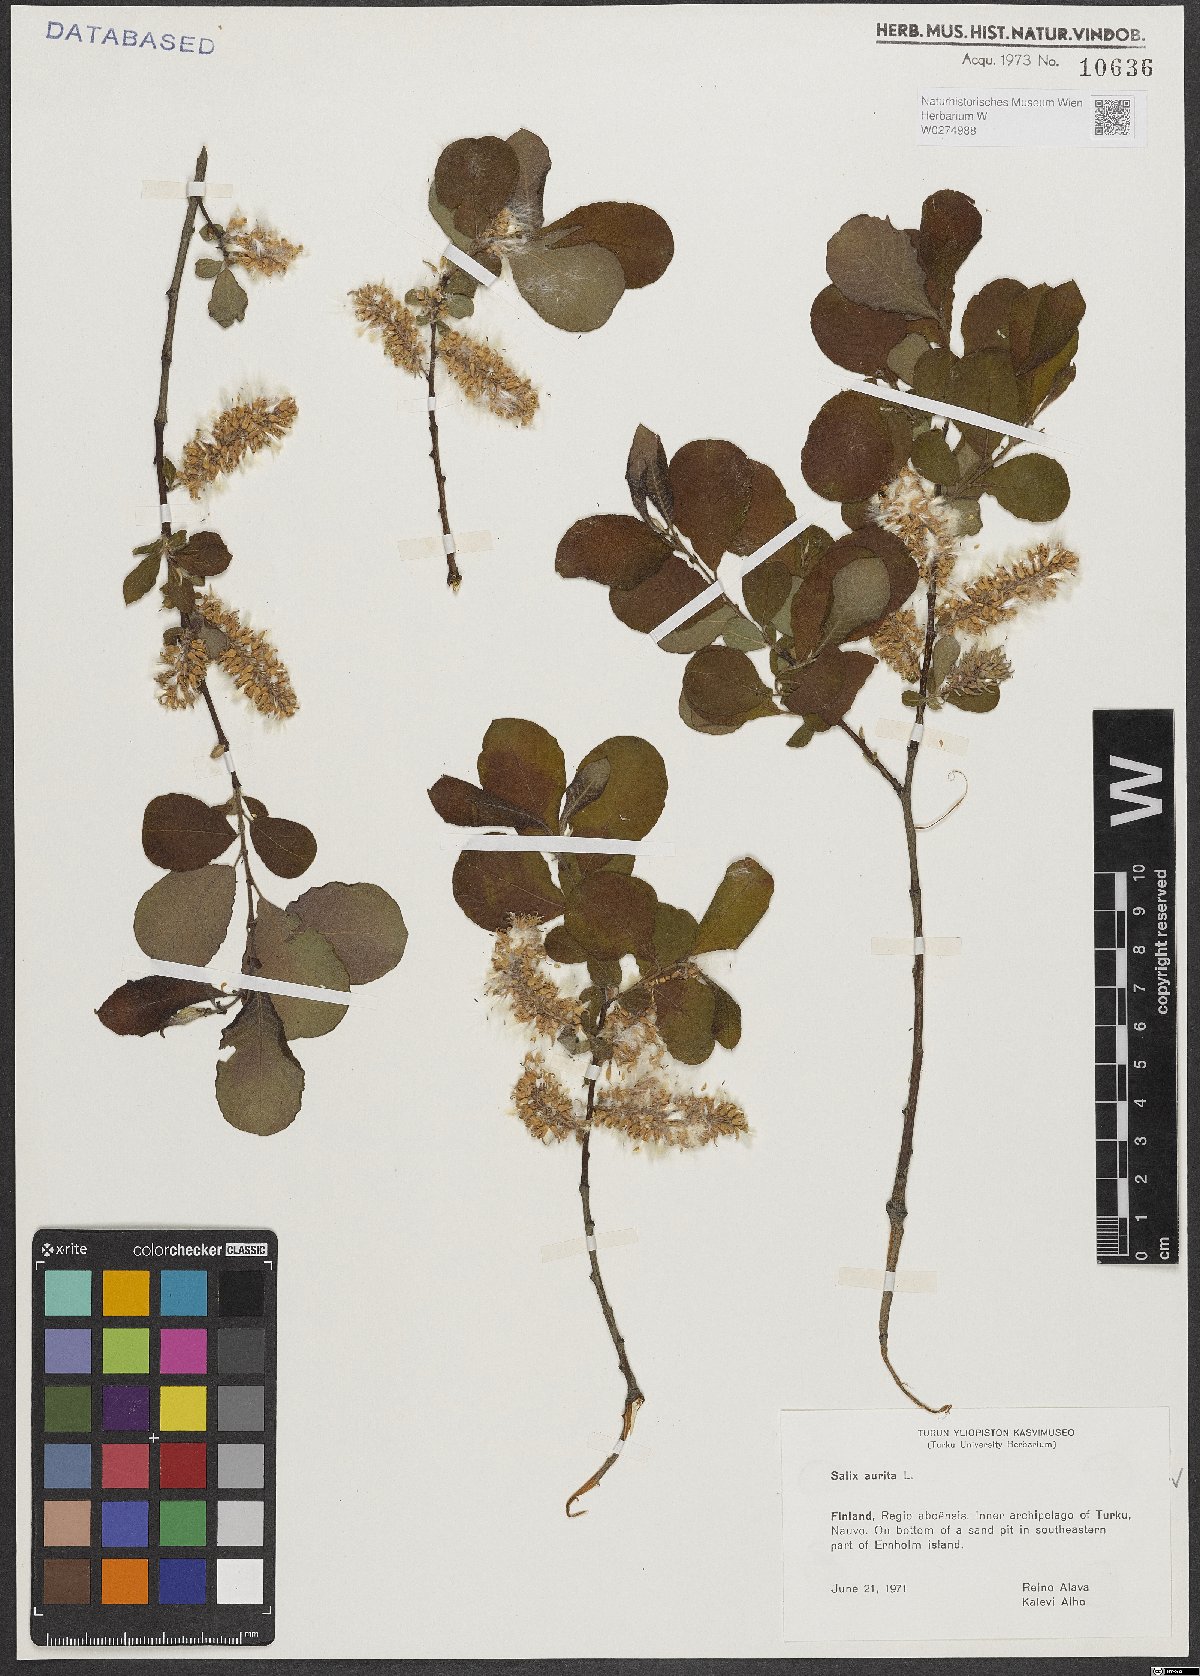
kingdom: Plantae
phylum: Tracheophyta
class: Magnoliopsida
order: Malpighiales
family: Salicaceae
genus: Salix
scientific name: Salix aurita
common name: Eared willow
